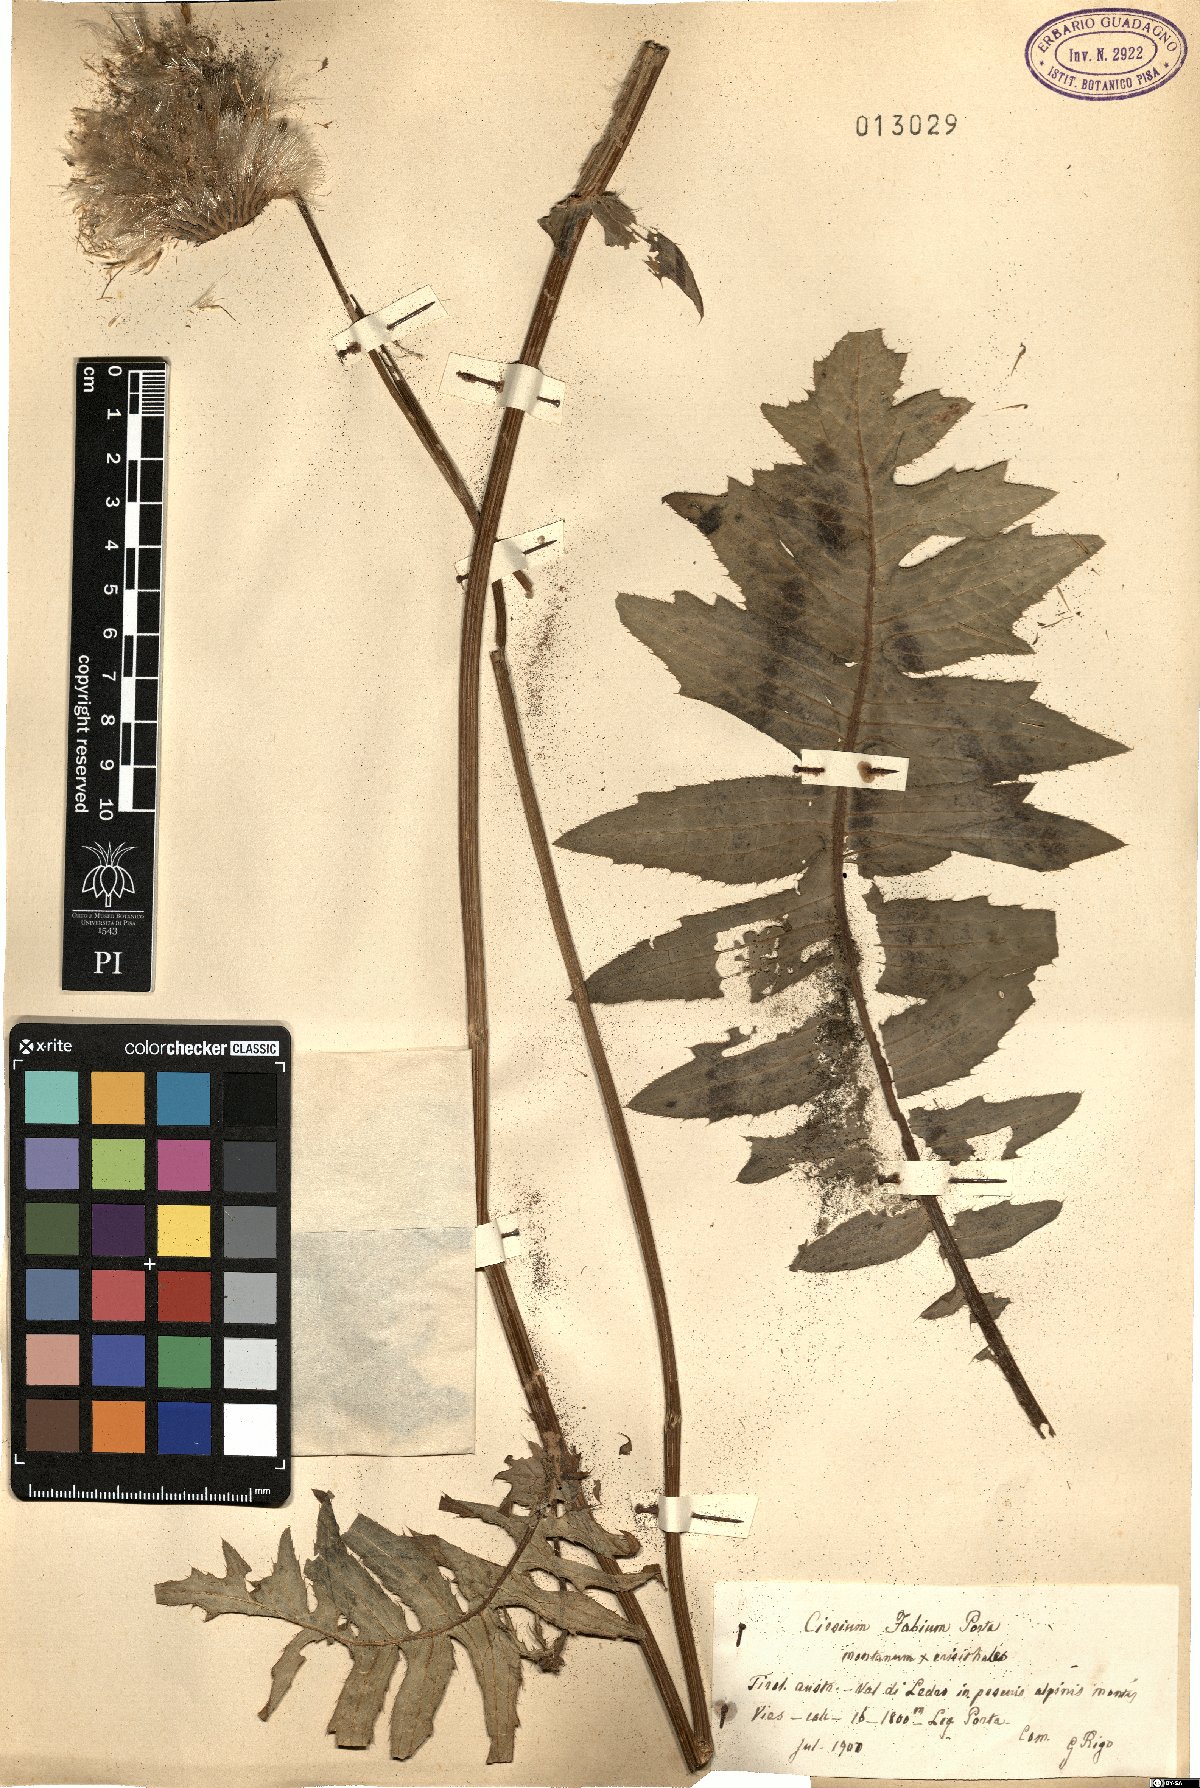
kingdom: Plantae
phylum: Tracheophyta
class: Magnoliopsida
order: Asterales
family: Asteraceae
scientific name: Asteraceae
